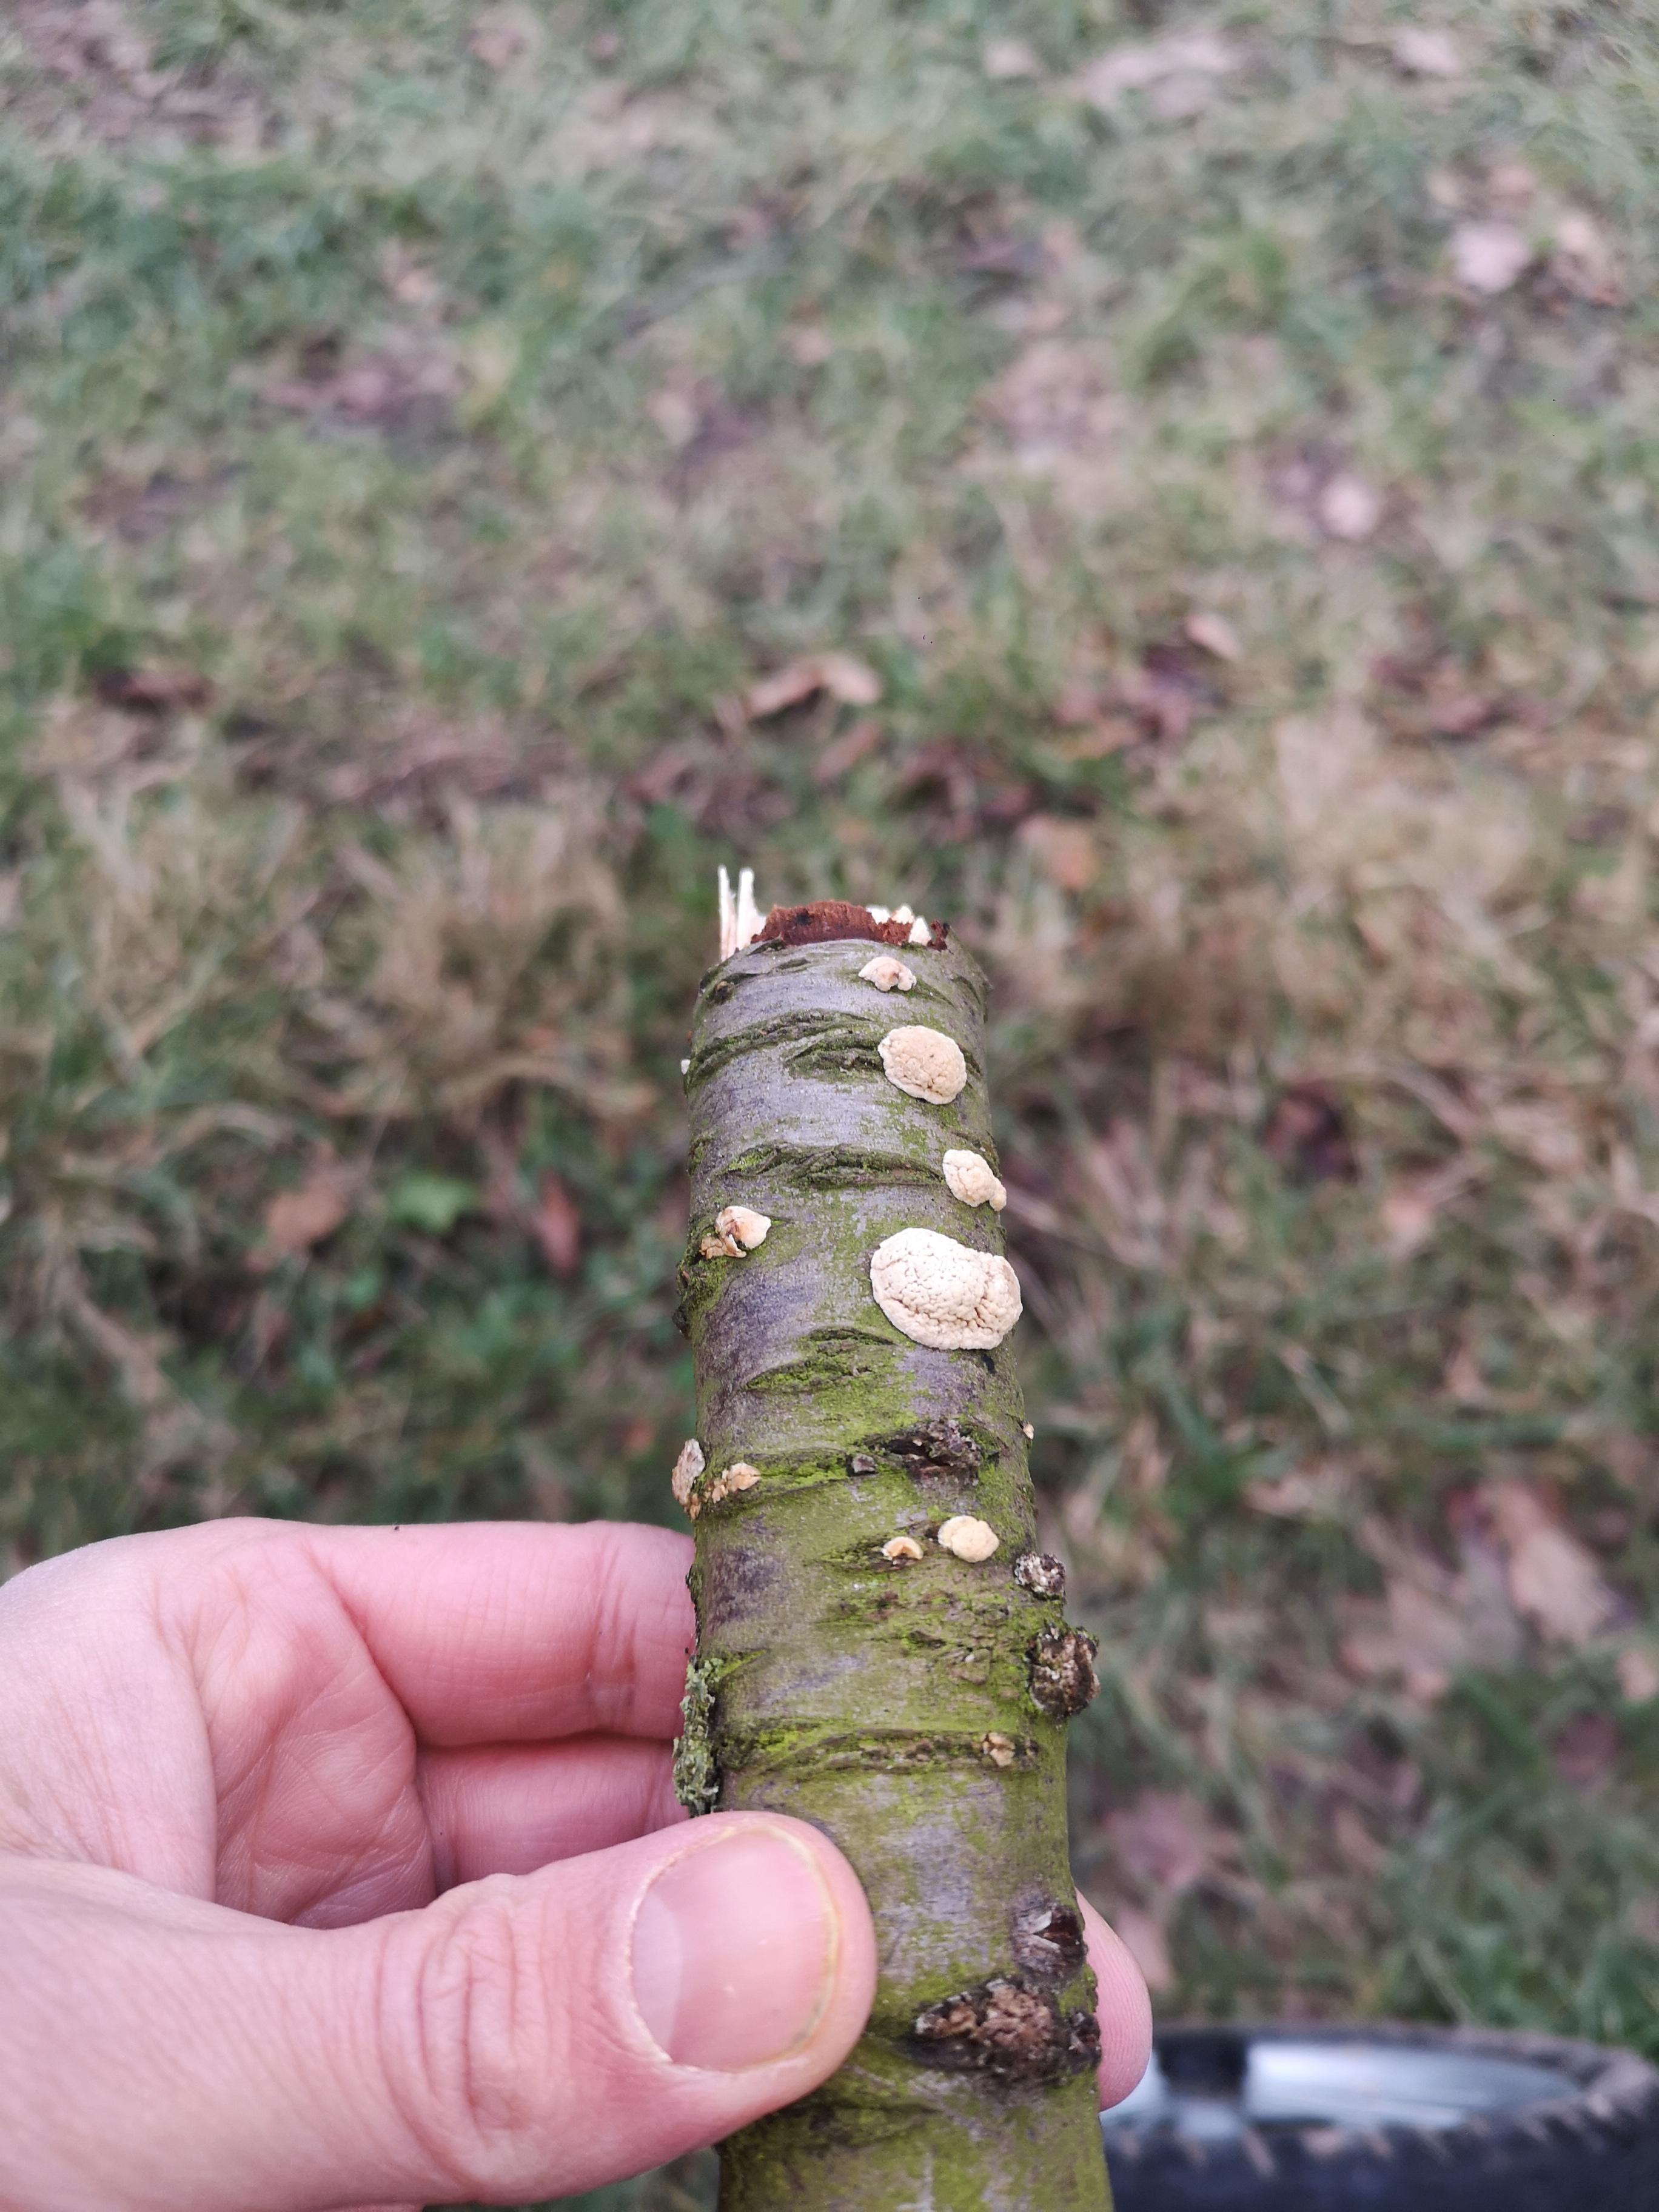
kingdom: Fungi
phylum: Basidiomycota
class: Agaricomycetes
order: Corticiales
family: Corticiaceae
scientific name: Corticiaceae
